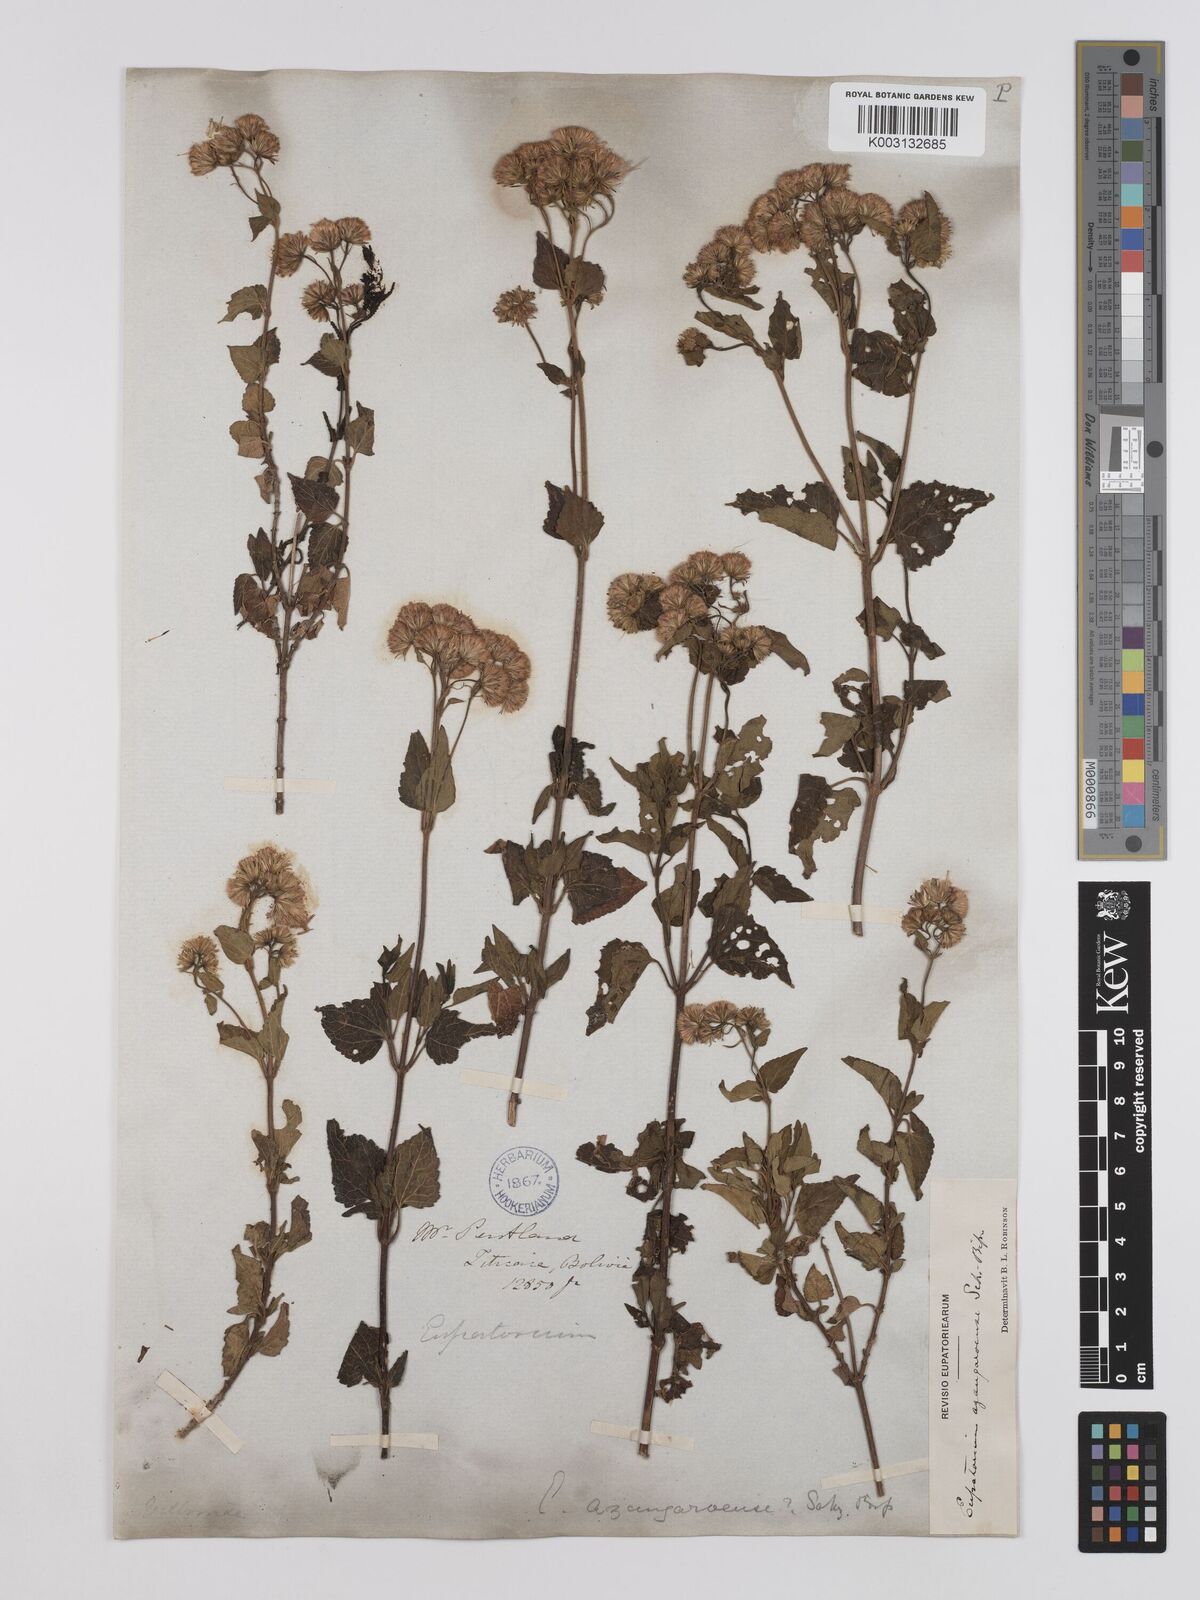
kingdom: Plantae
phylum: Tracheophyta
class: Magnoliopsida
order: Asterales
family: Asteraceae
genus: Ageratina
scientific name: Ageratina glechonophylla
